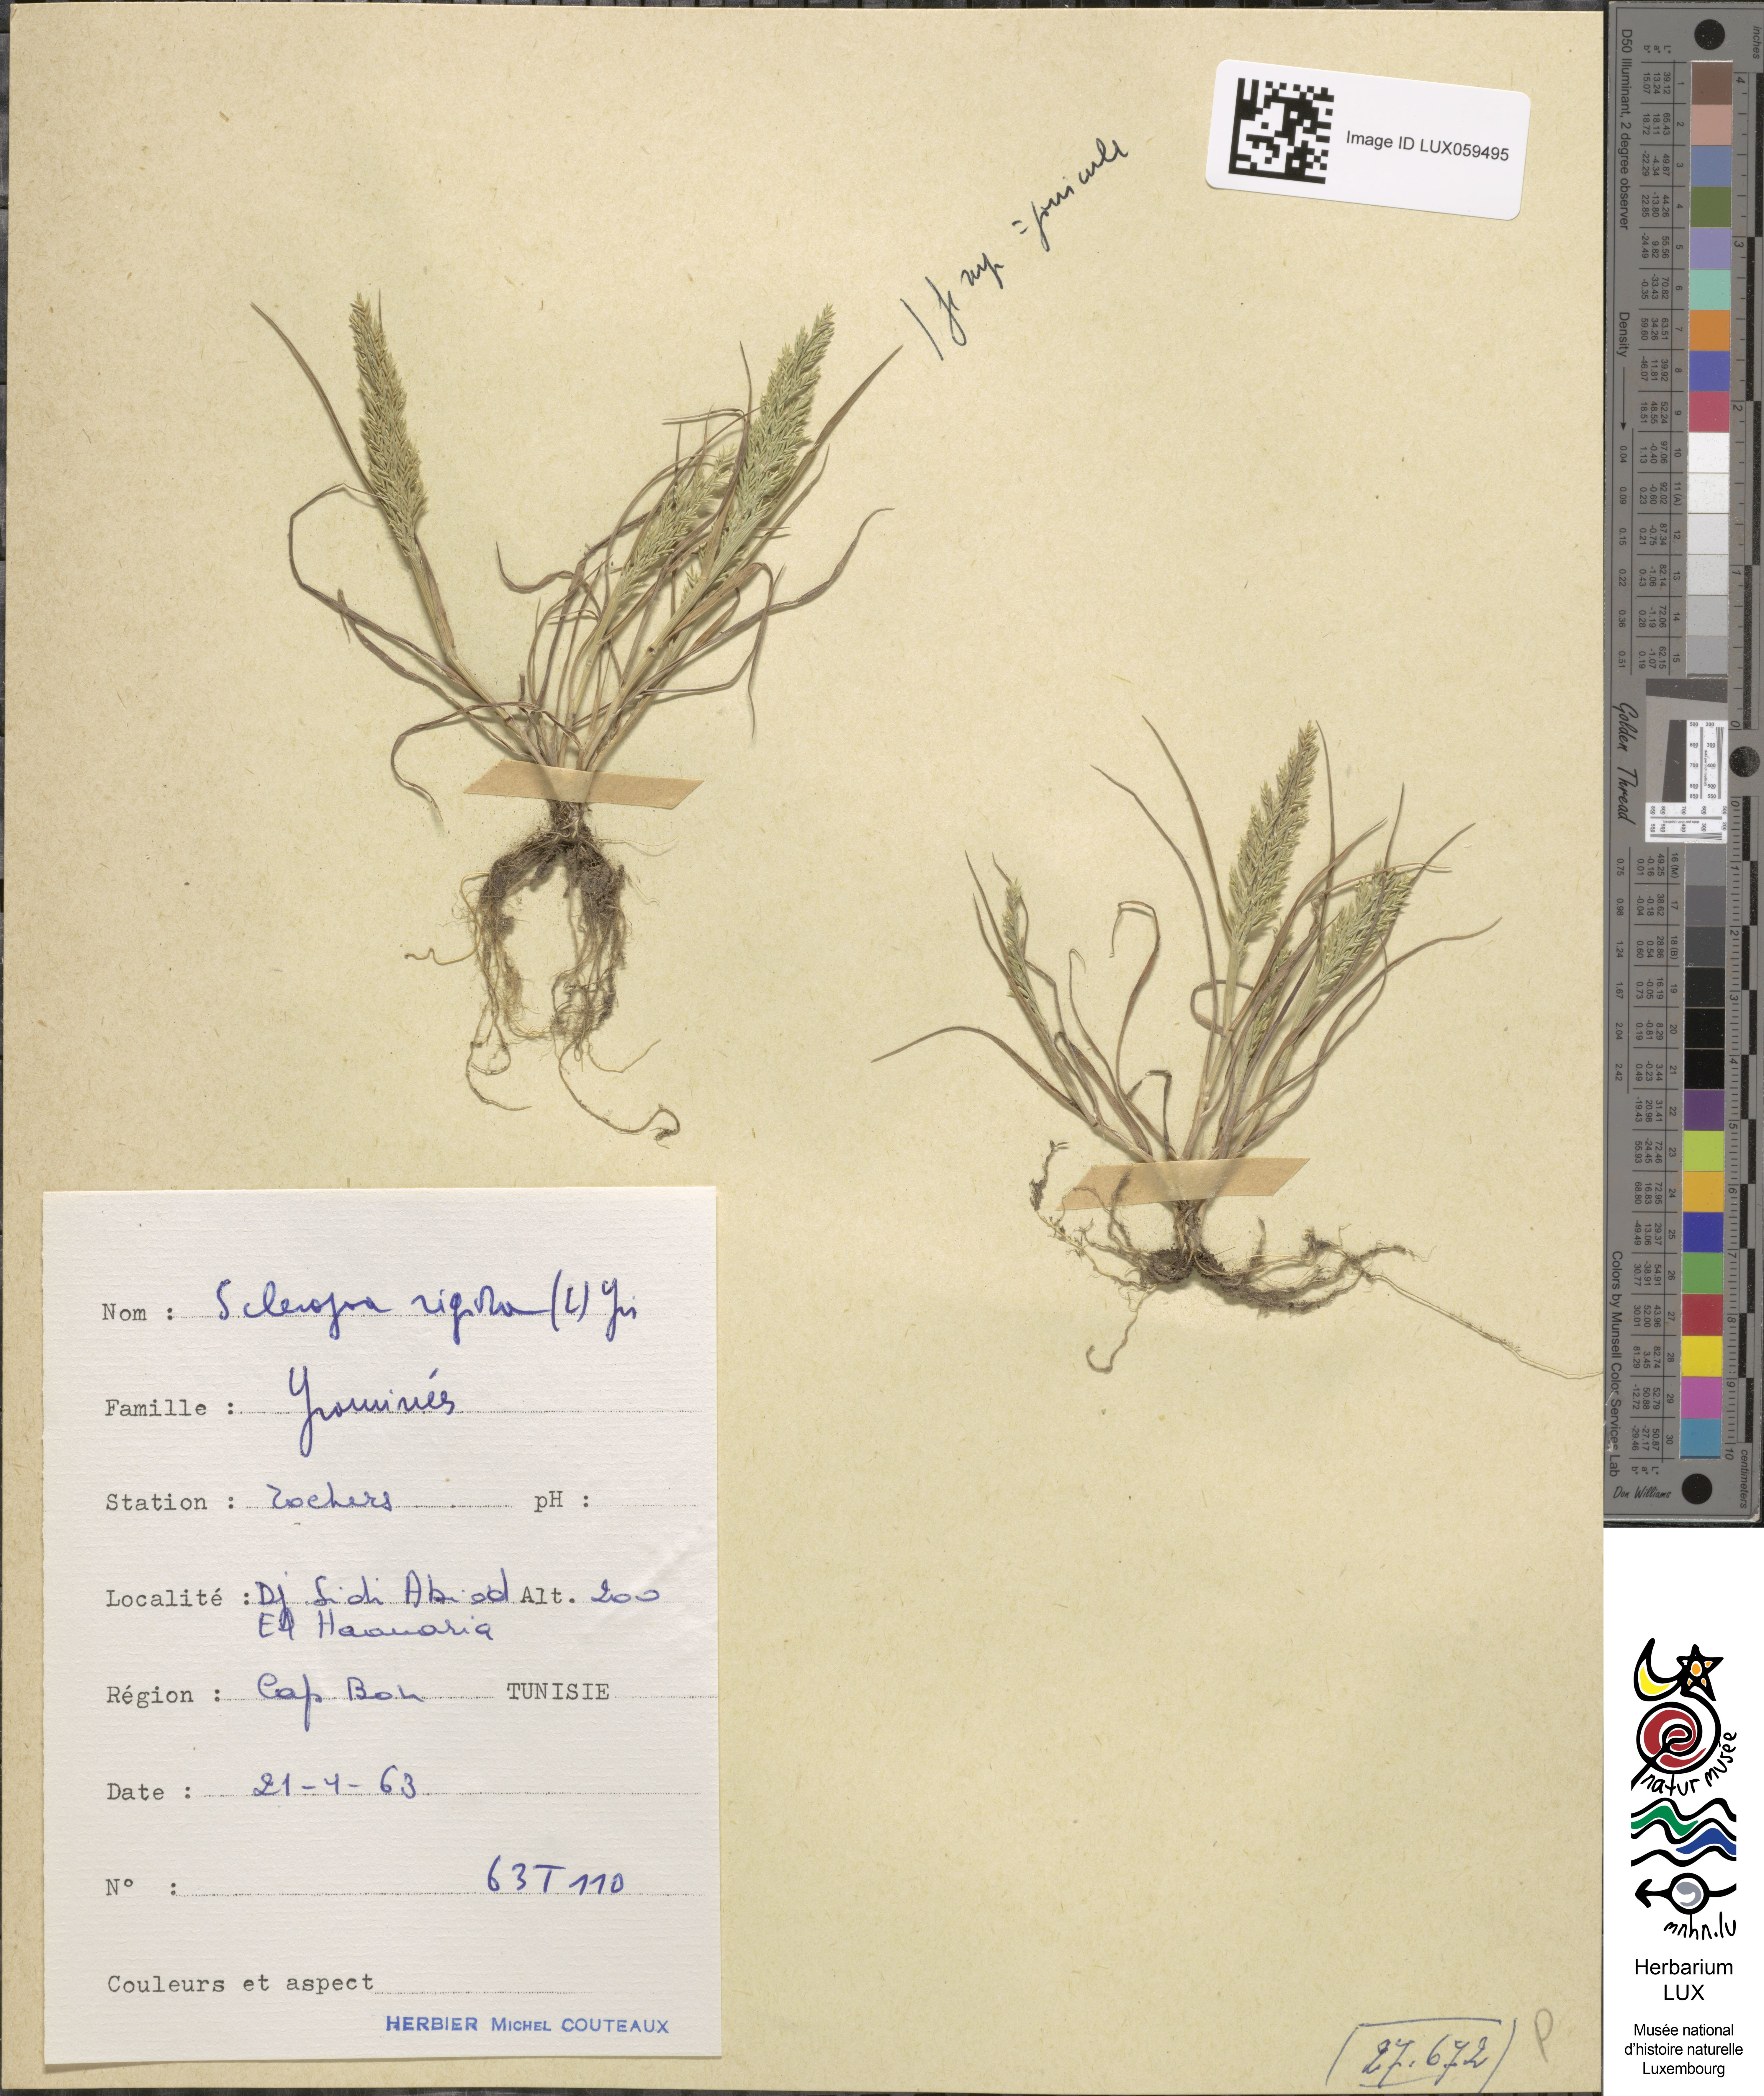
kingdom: Plantae
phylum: Tracheophyta
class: Liliopsida
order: Poales
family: Poaceae
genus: Catapodium
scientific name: Catapodium rigidum
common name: Fern-grass
